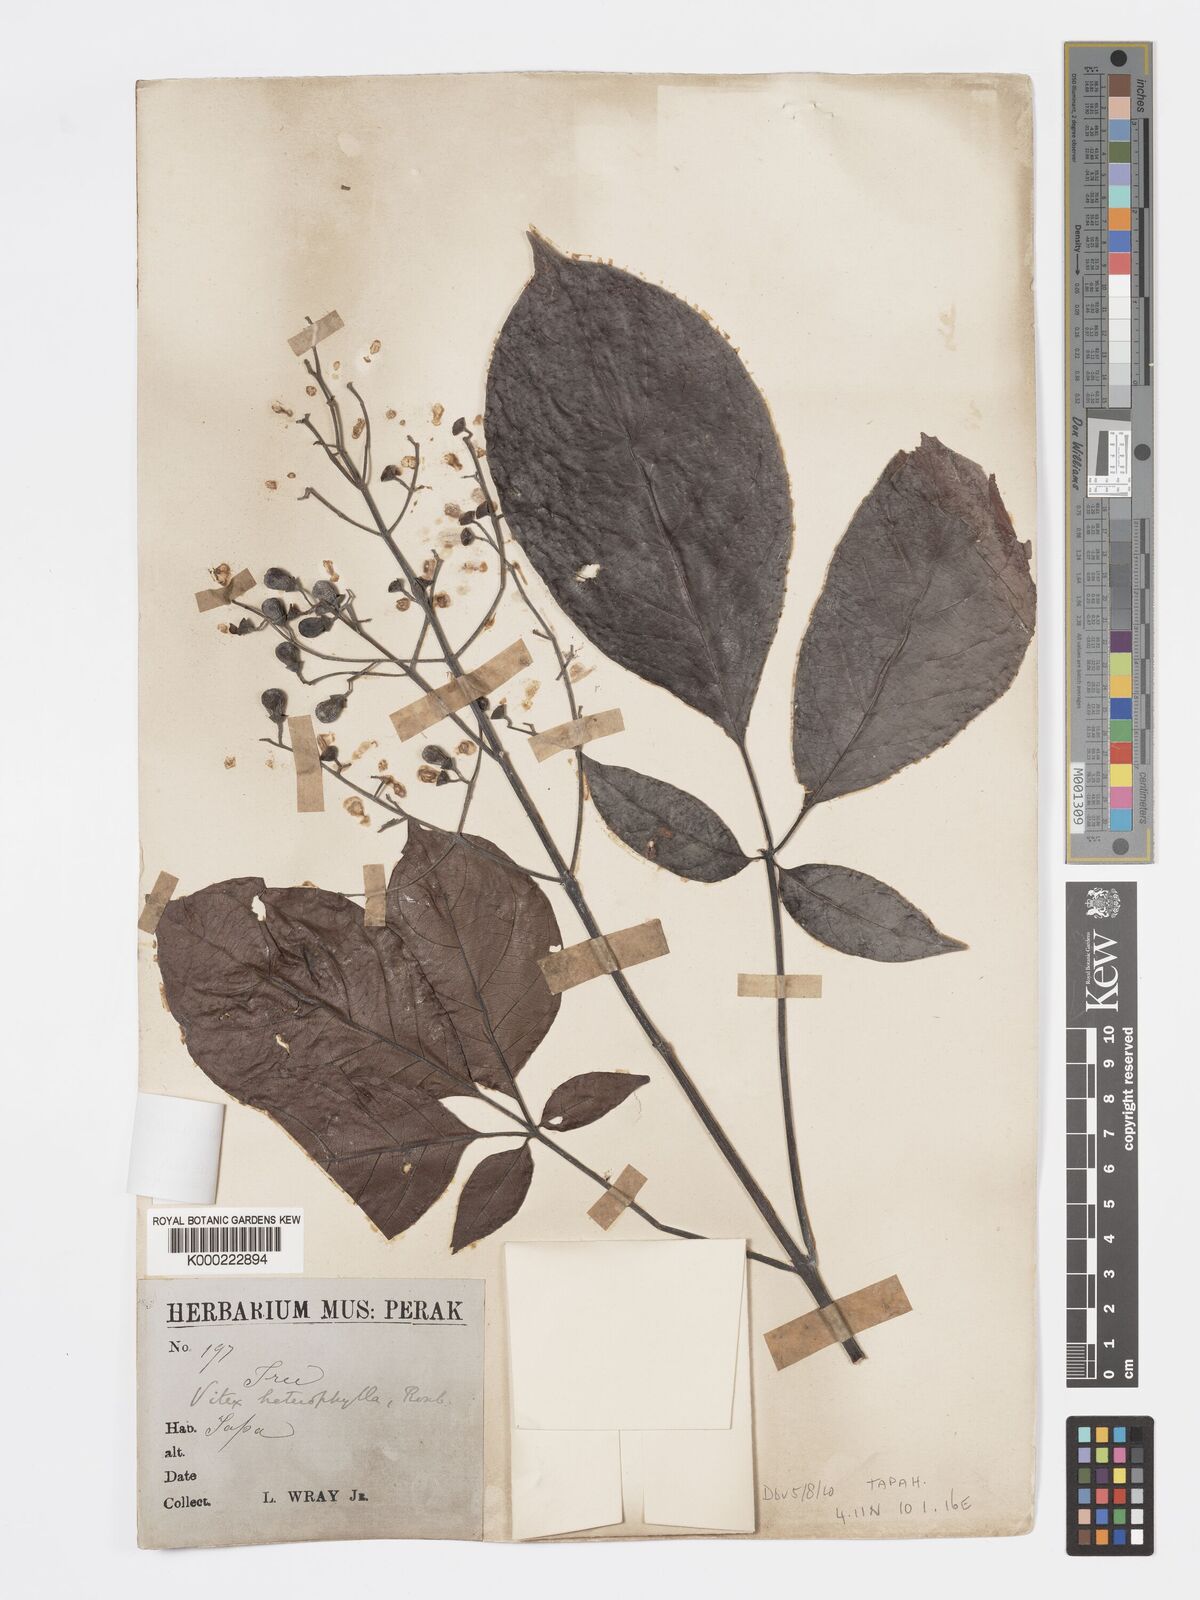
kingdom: Plantae
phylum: Tracheophyta
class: Magnoliopsida
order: Lamiales
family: Lamiaceae
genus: Vitex
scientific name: Vitex quinata
